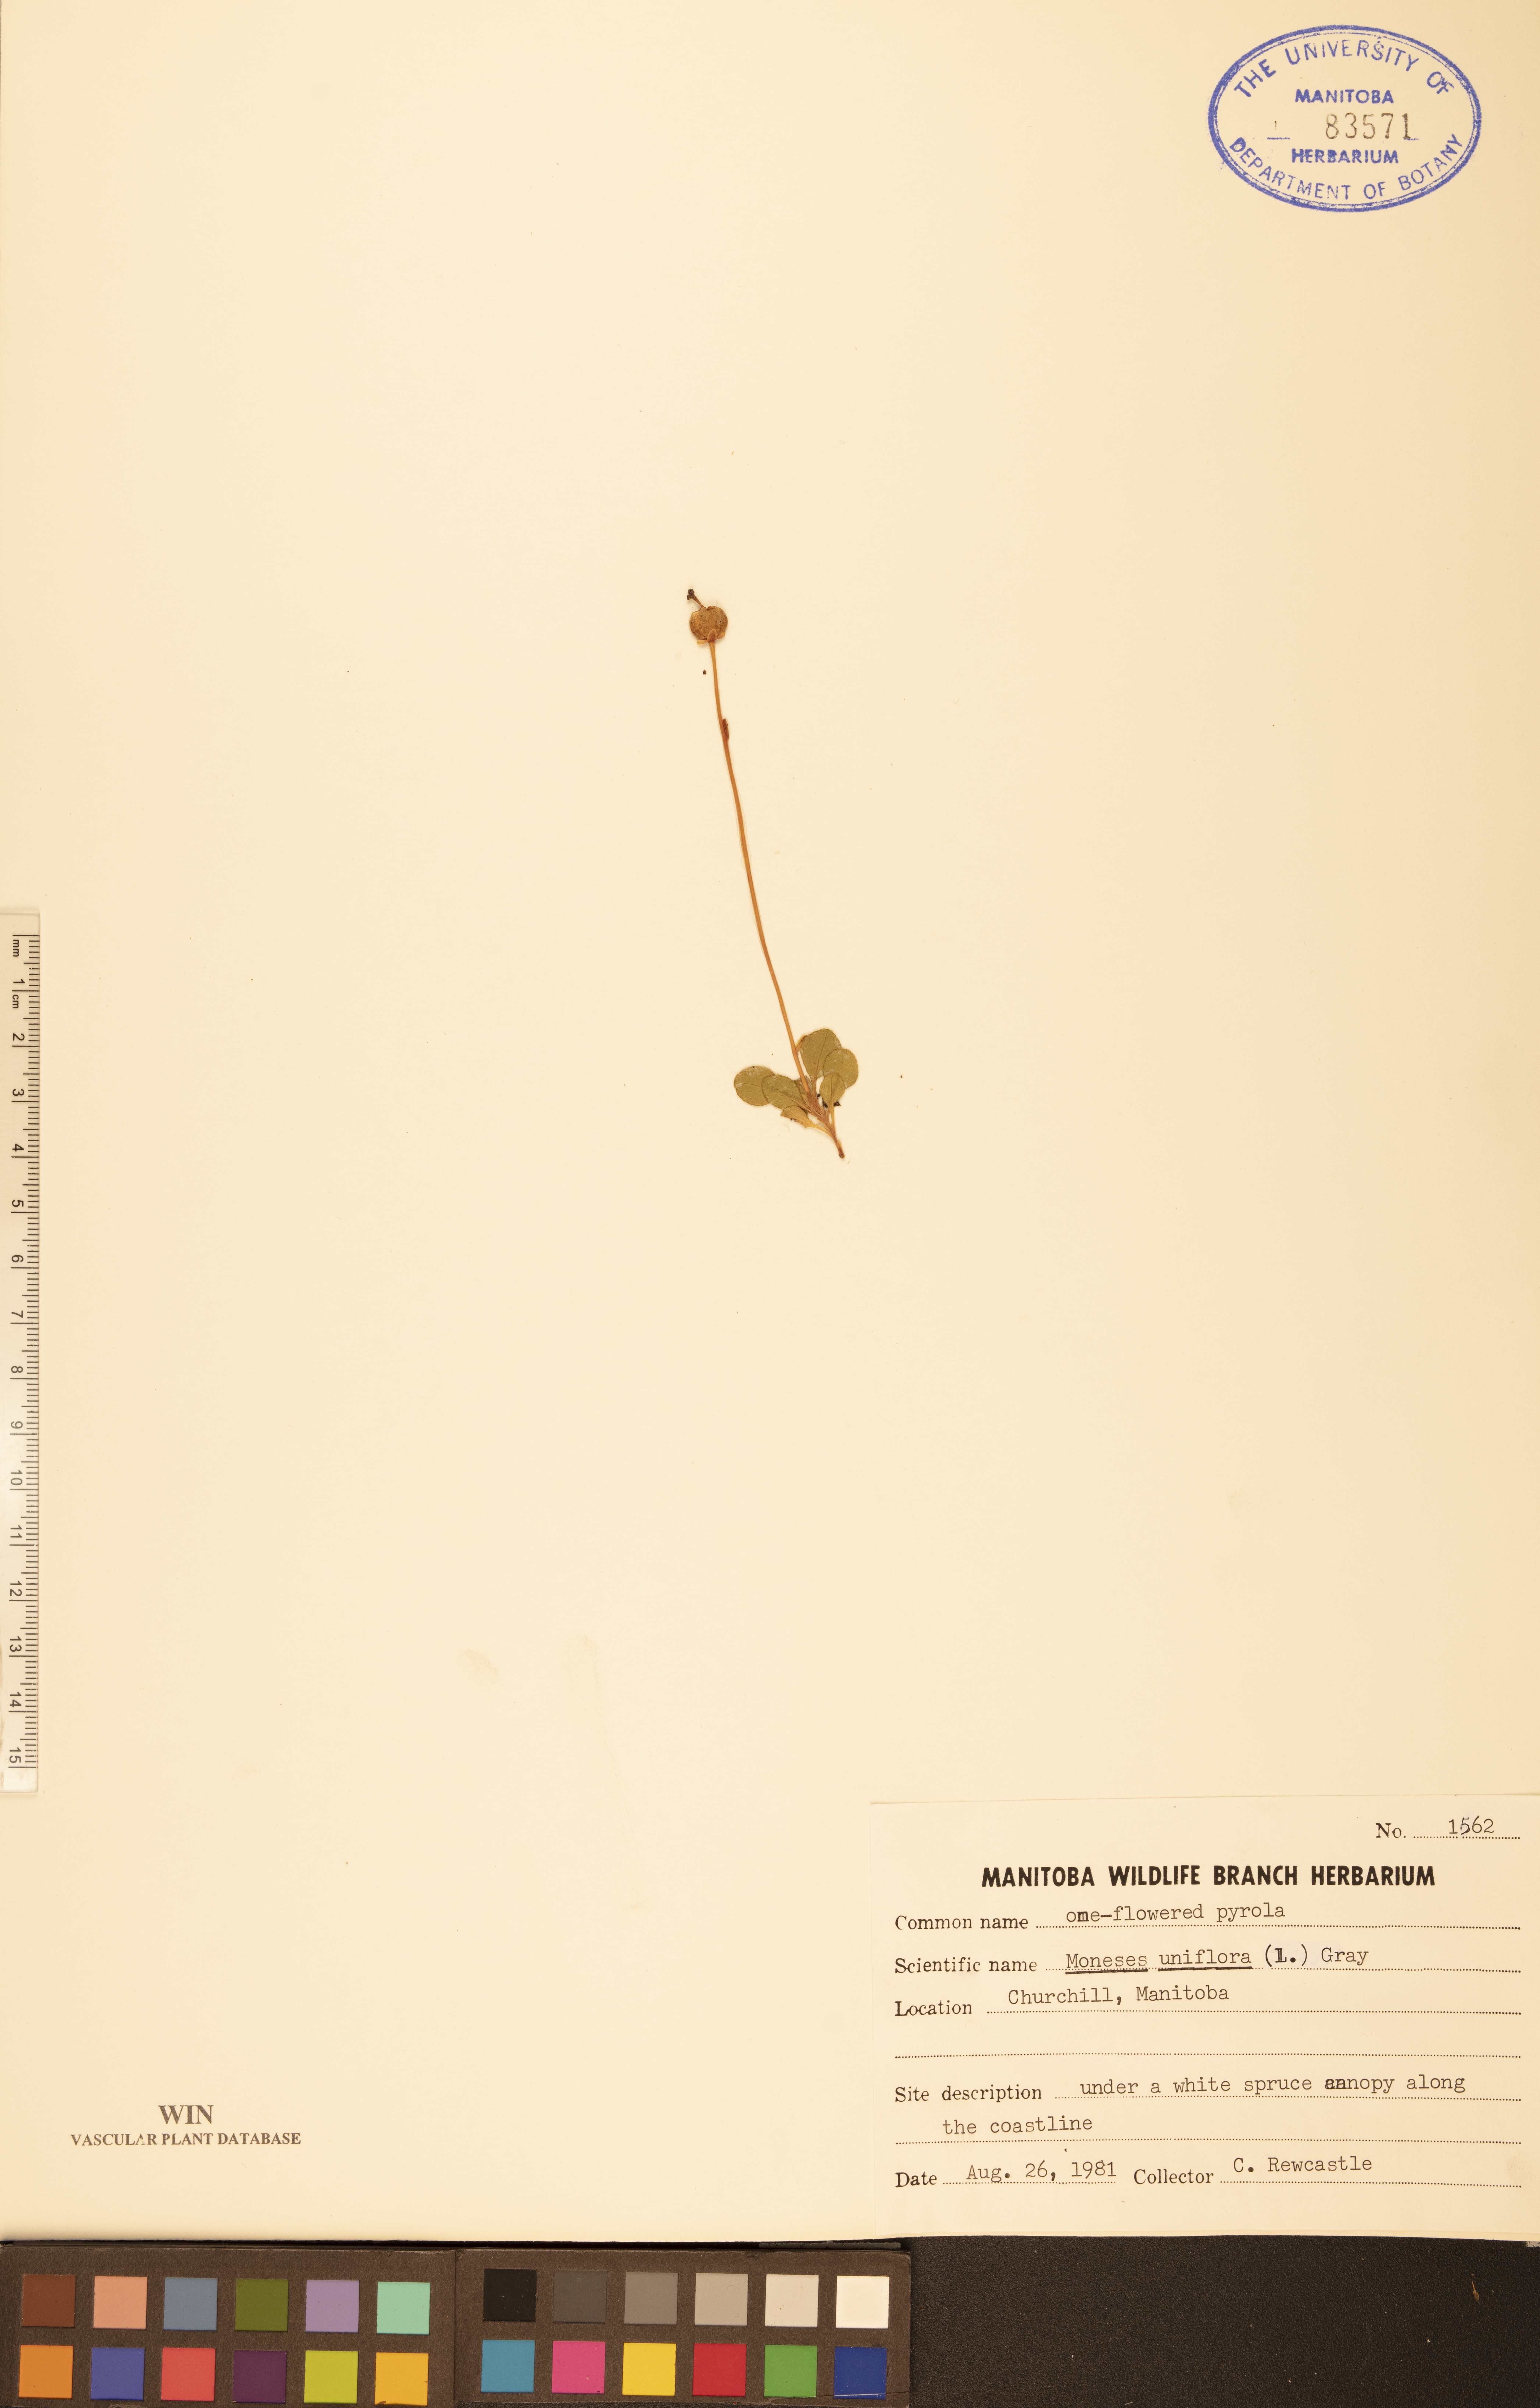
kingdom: Plantae
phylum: Tracheophyta
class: Magnoliopsida
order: Ericales
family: Ericaceae
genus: Moneses
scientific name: Moneses uniflora
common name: One-flowered wintergreen
